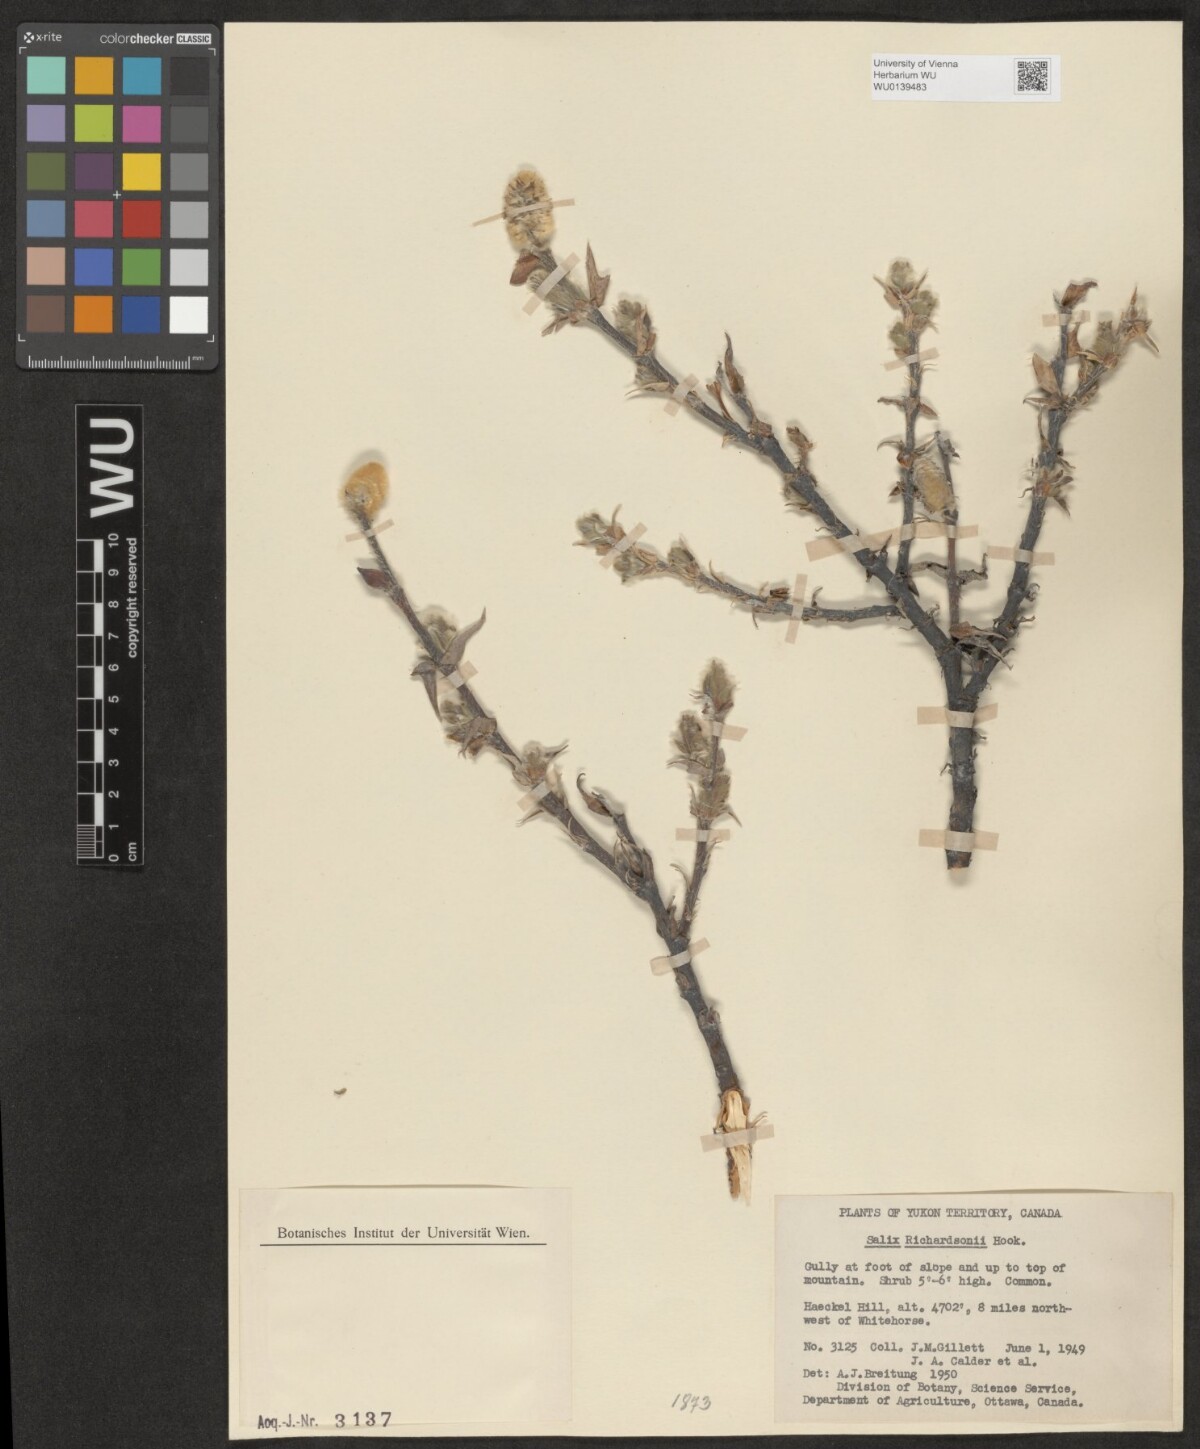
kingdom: Plantae
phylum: Tracheophyta
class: Magnoliopsida
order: Malpighiales
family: Salicaceae
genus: Salix
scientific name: Salix richardsonii
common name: Richardson’s willow
